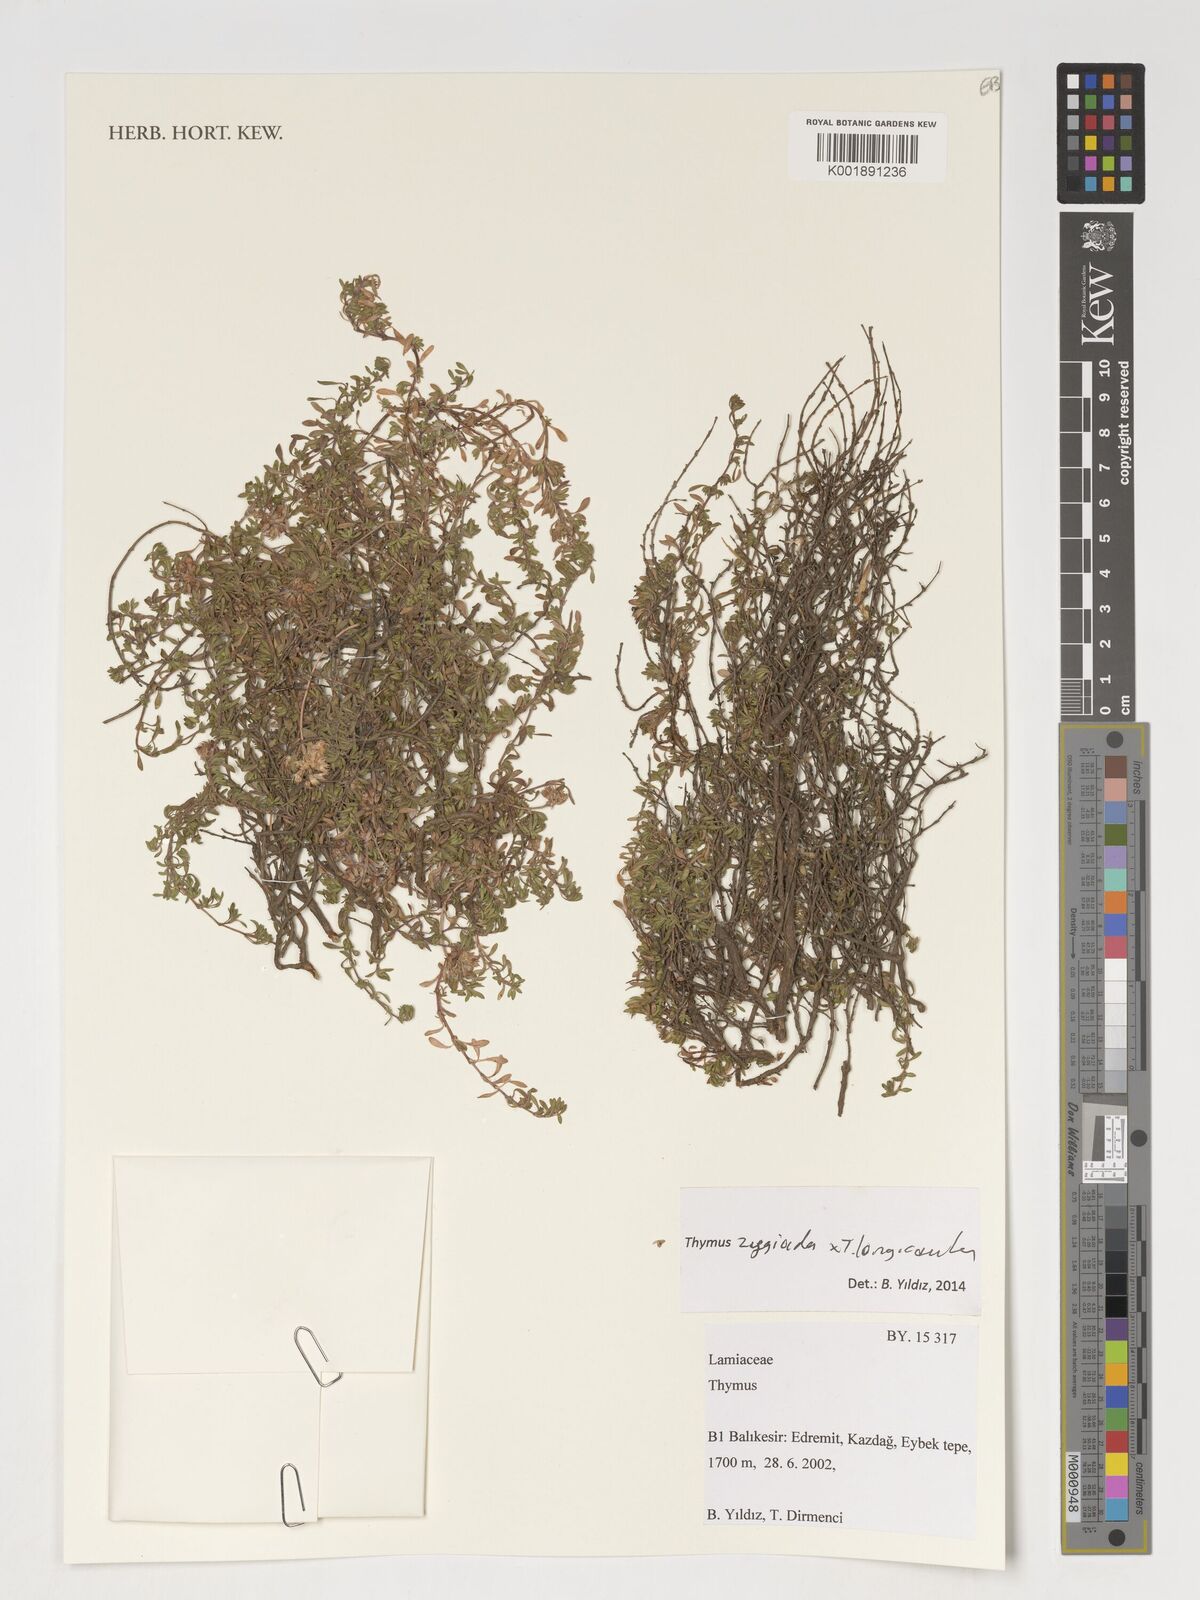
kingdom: Plantae
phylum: Tracheophyta
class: Magnoliopsida
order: Lamiales
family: Lamiaceae
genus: Thymus
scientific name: Thymus
